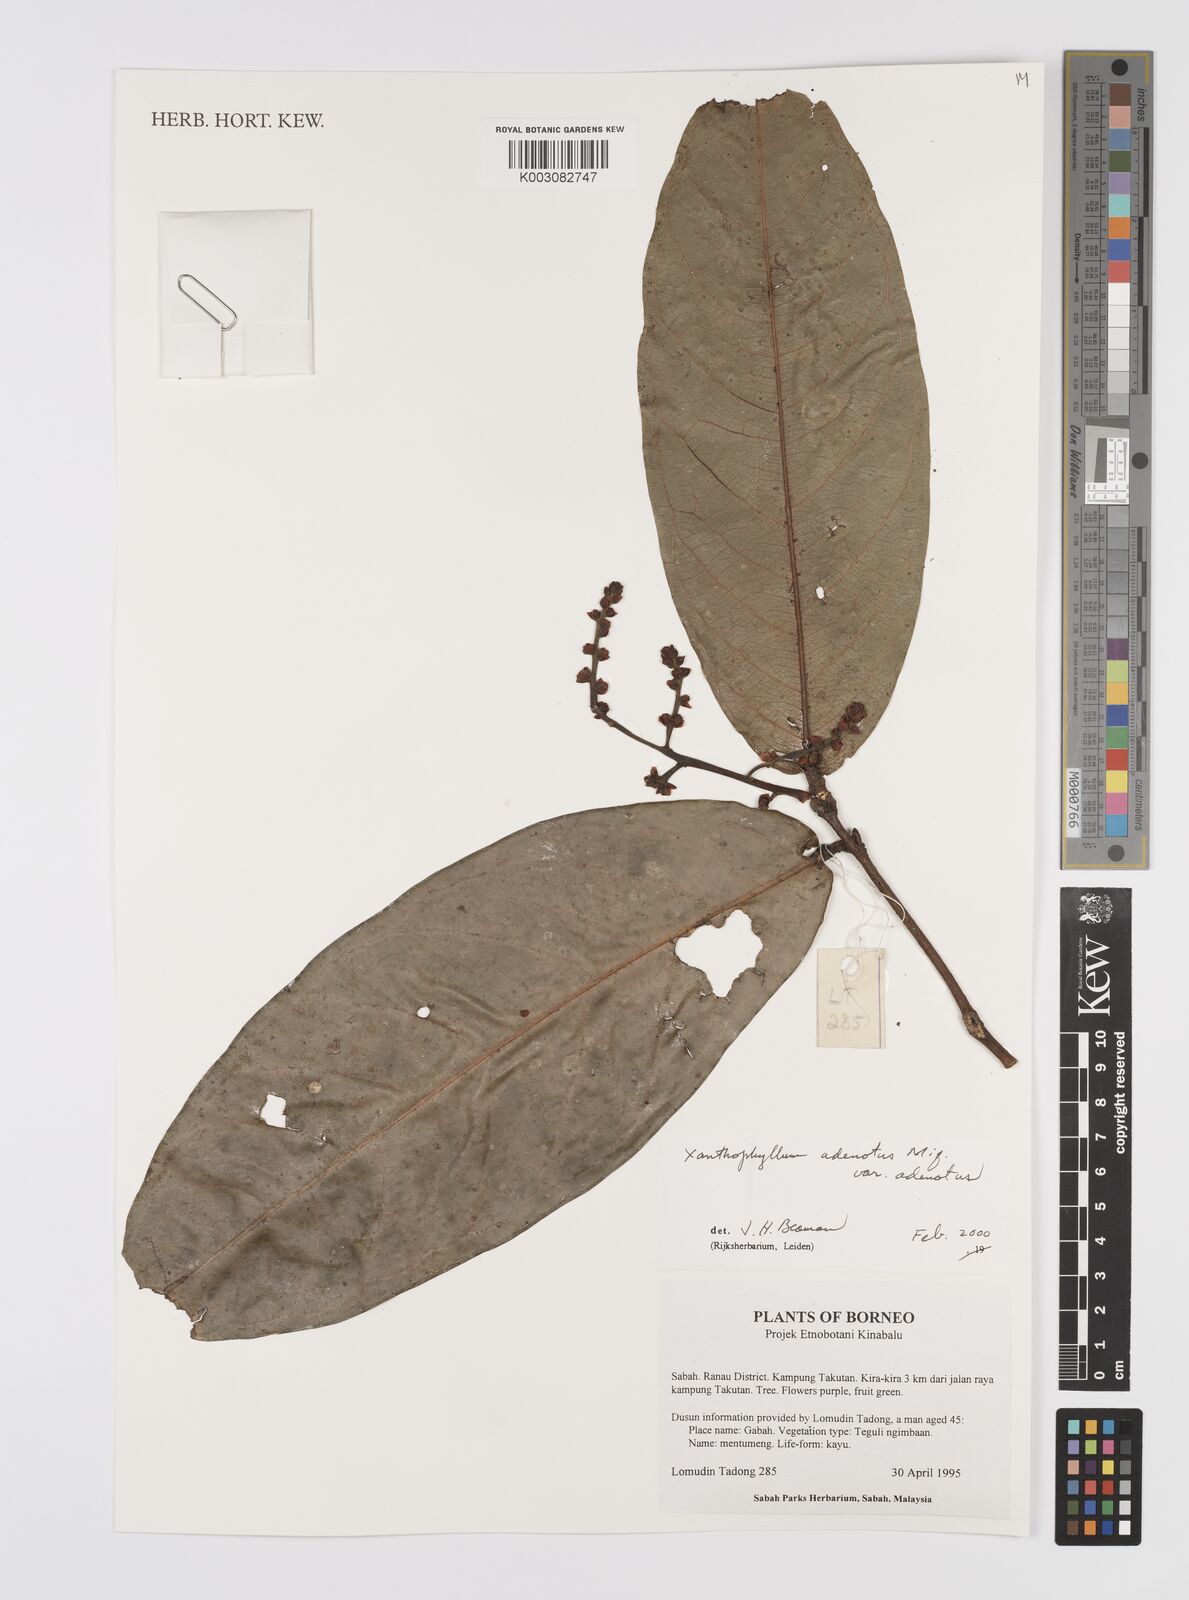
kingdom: Plantae
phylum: Tracheophyta
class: Magnoliopsida
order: Fabales
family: Polygalaceae
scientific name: Polygalaceae
